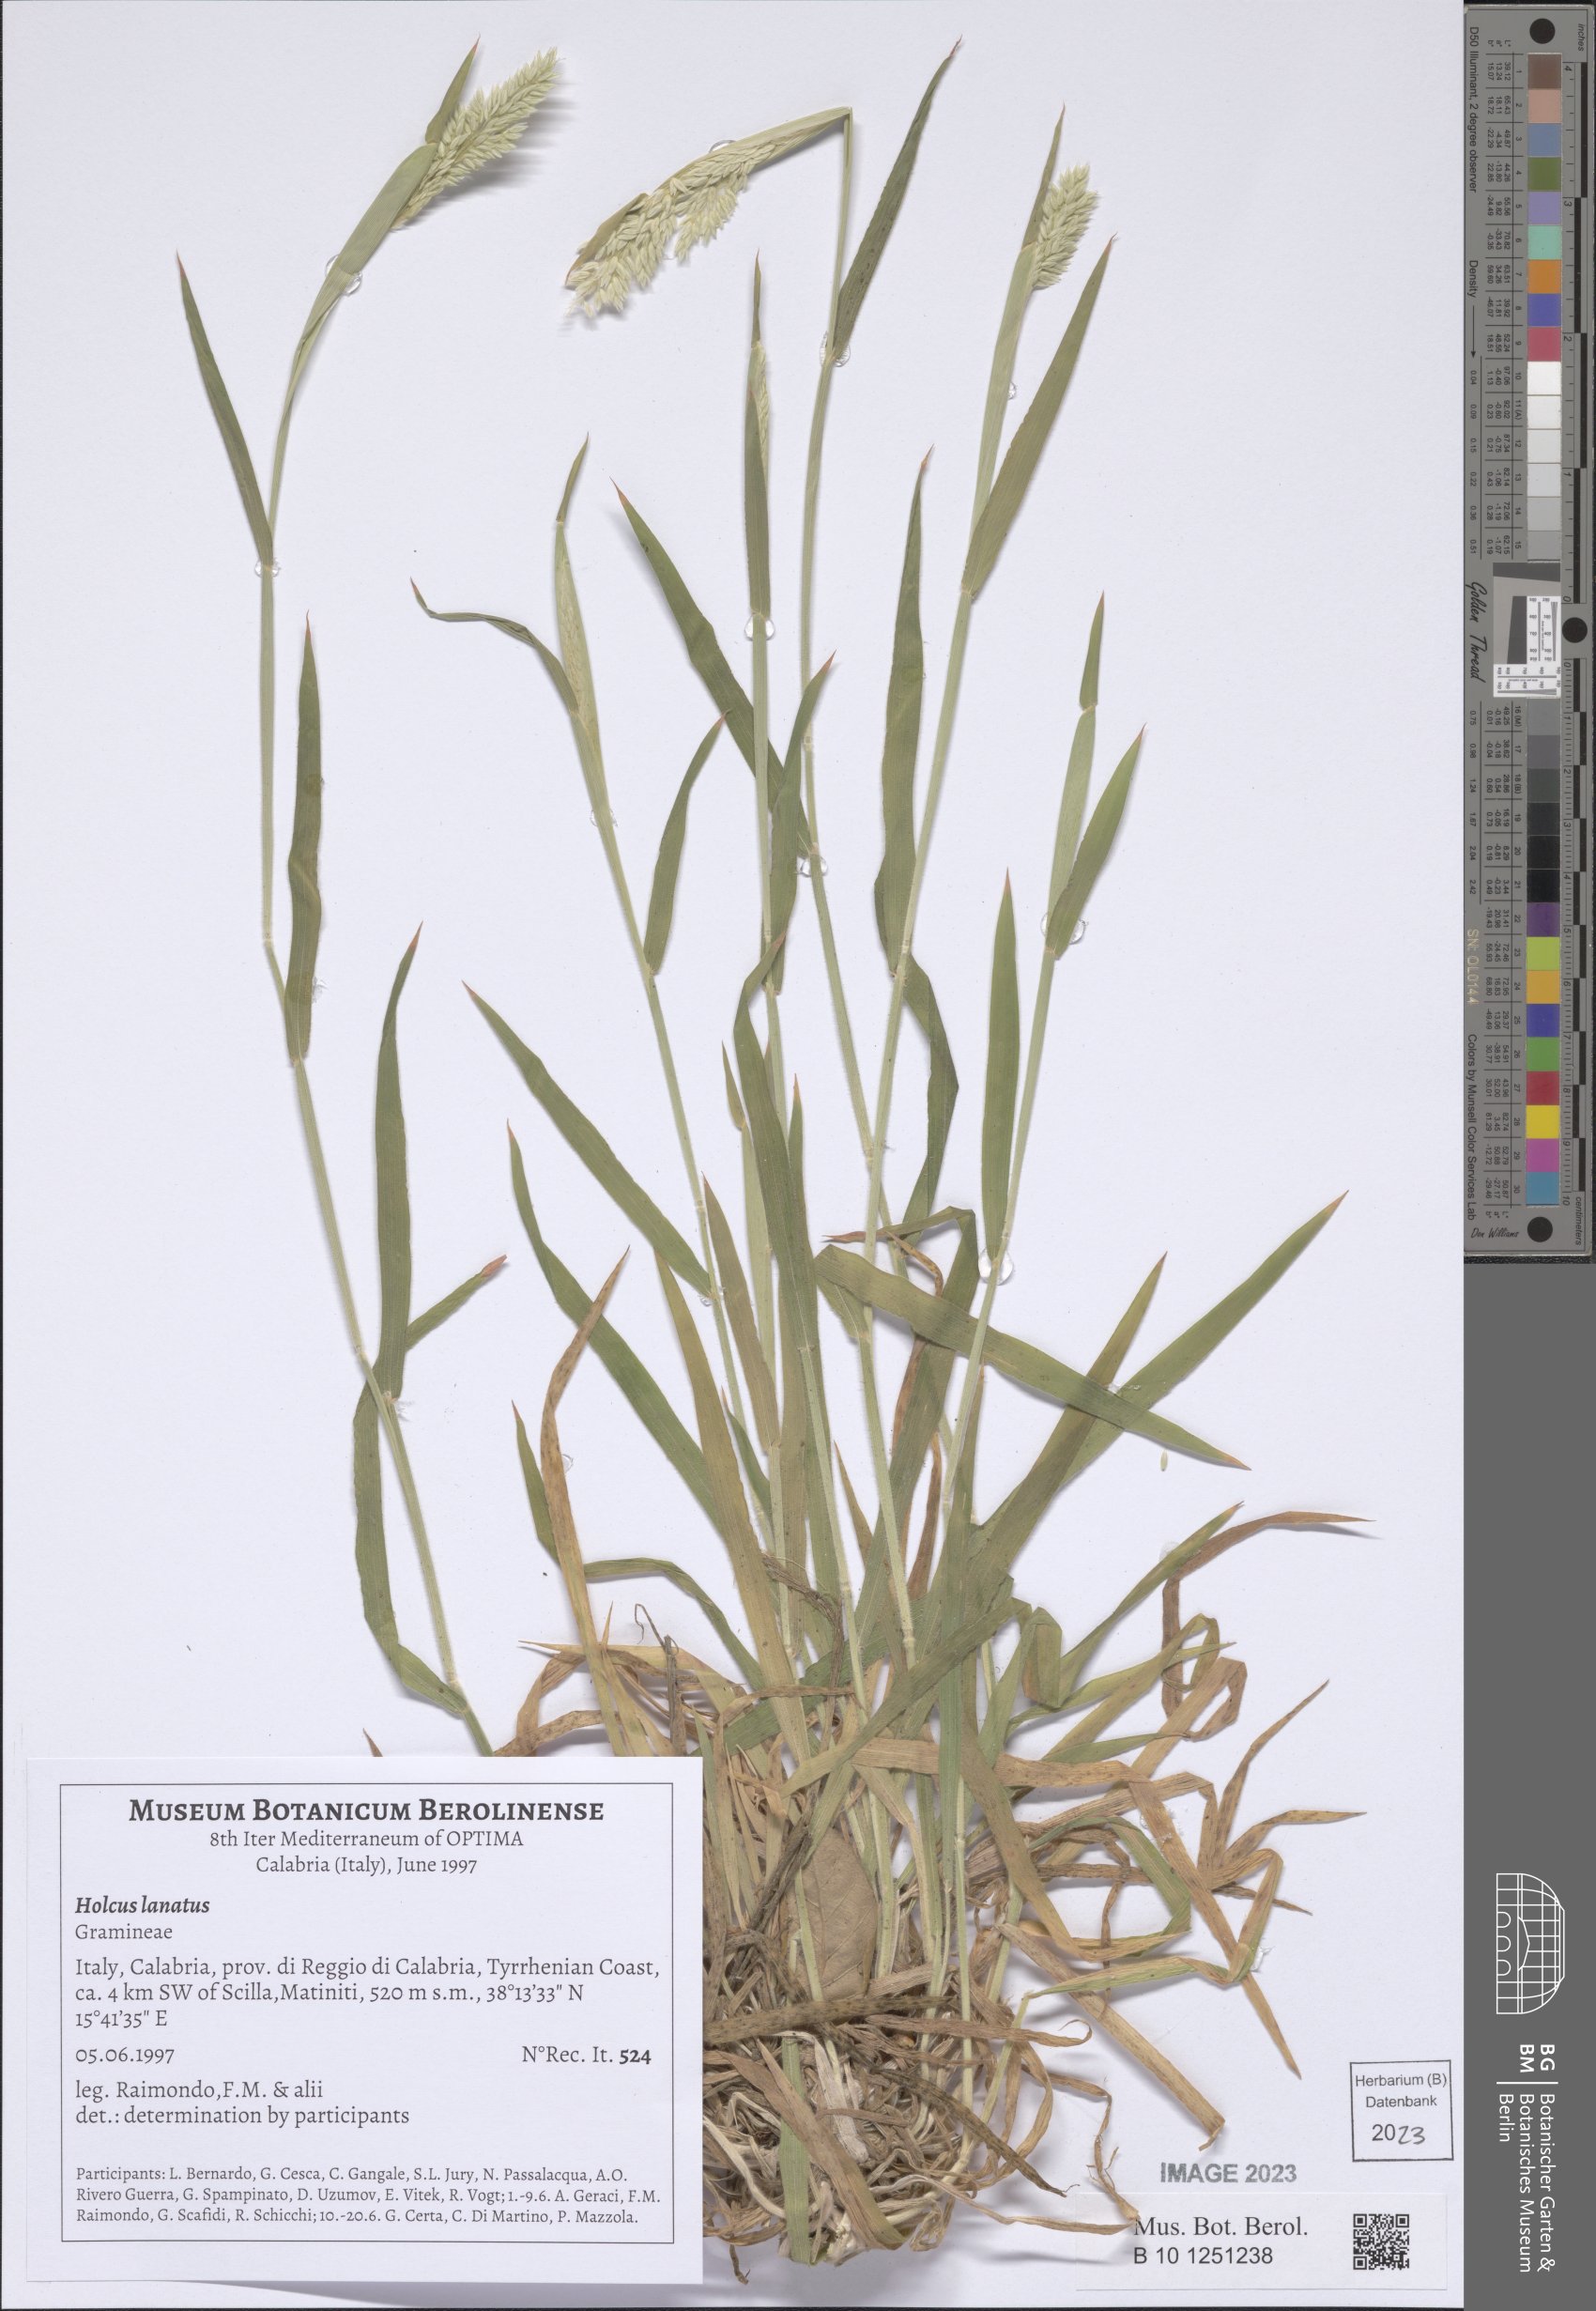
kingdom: Plantae
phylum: Tracheophyta
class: Liliopsida
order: Poales
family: Poaceae
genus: Holcus
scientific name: Holcus lanatus
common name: Yorkshire-fog
